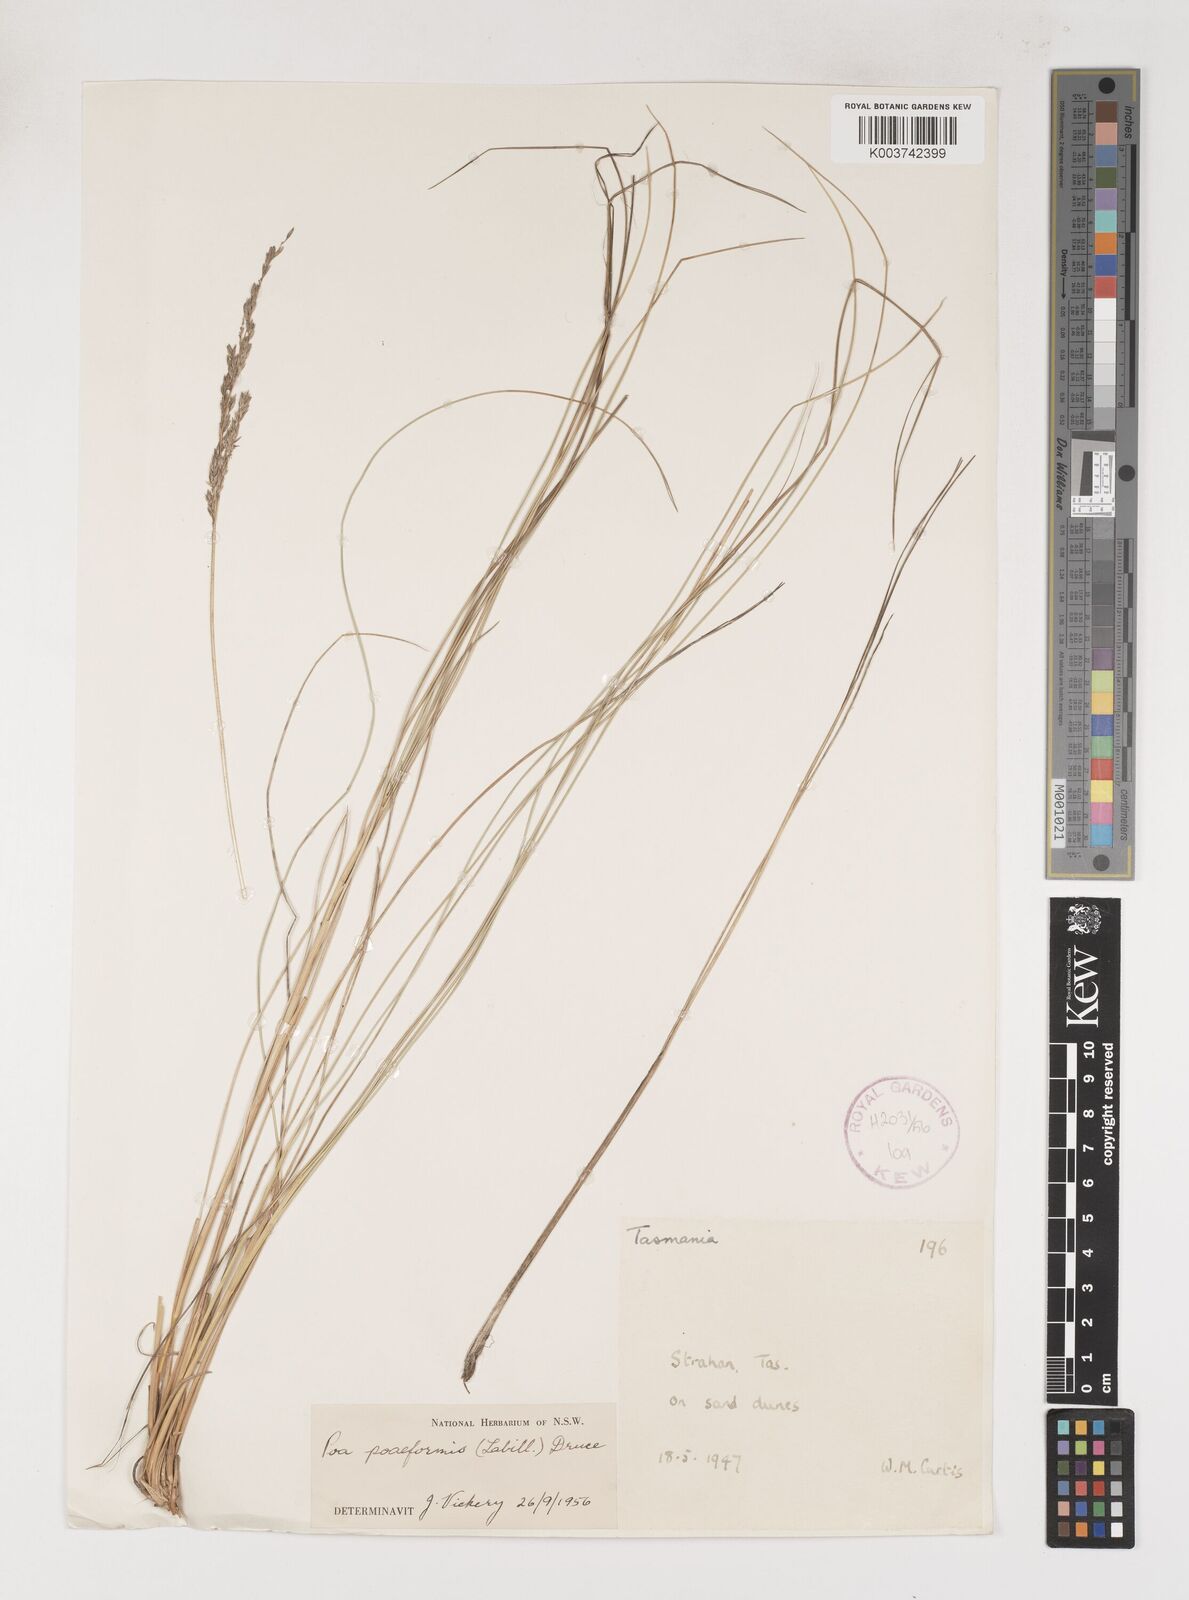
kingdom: Plantae
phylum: Tracheophyta
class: Liliopsida
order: Poales
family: Poaceae
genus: Poa
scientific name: Poa poiformis
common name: Tussock poa
